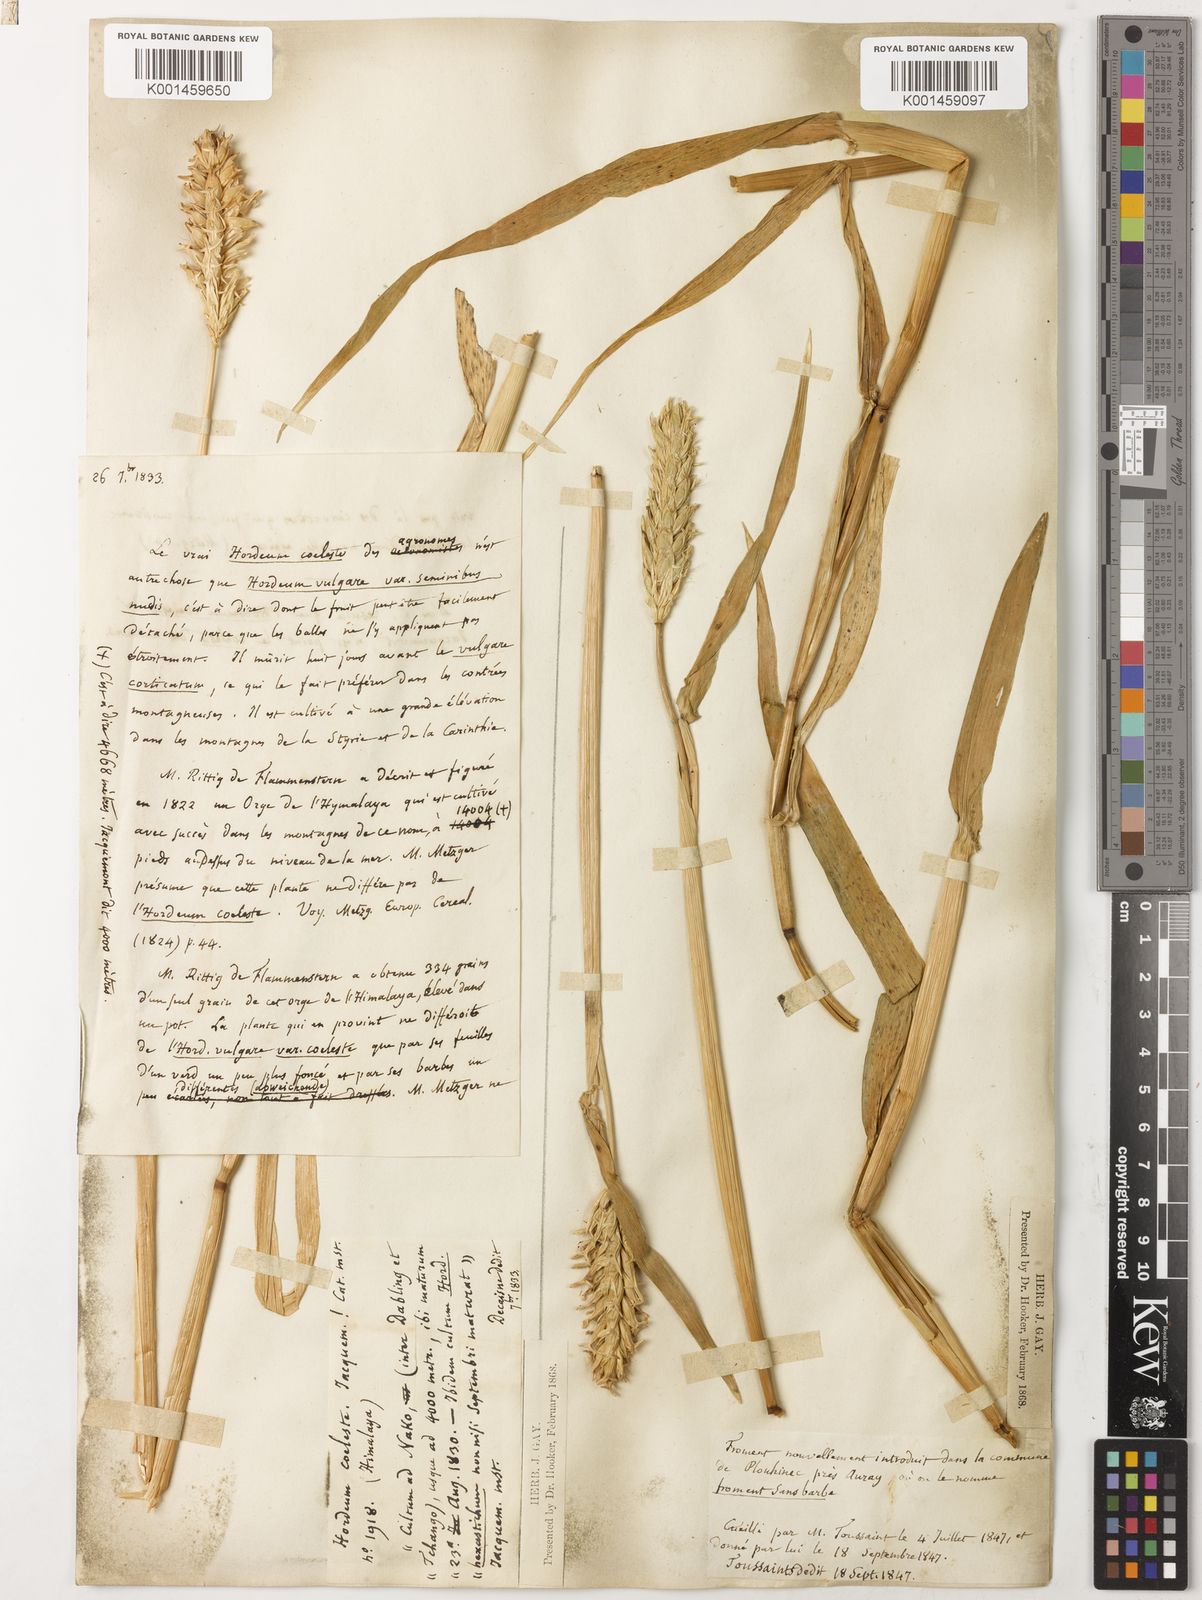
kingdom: Plantae
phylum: Tracheophyta
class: Liliopsida
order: Poales
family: Poaceae
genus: Hordeum
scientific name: Hordeum vulgare
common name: Common barley
